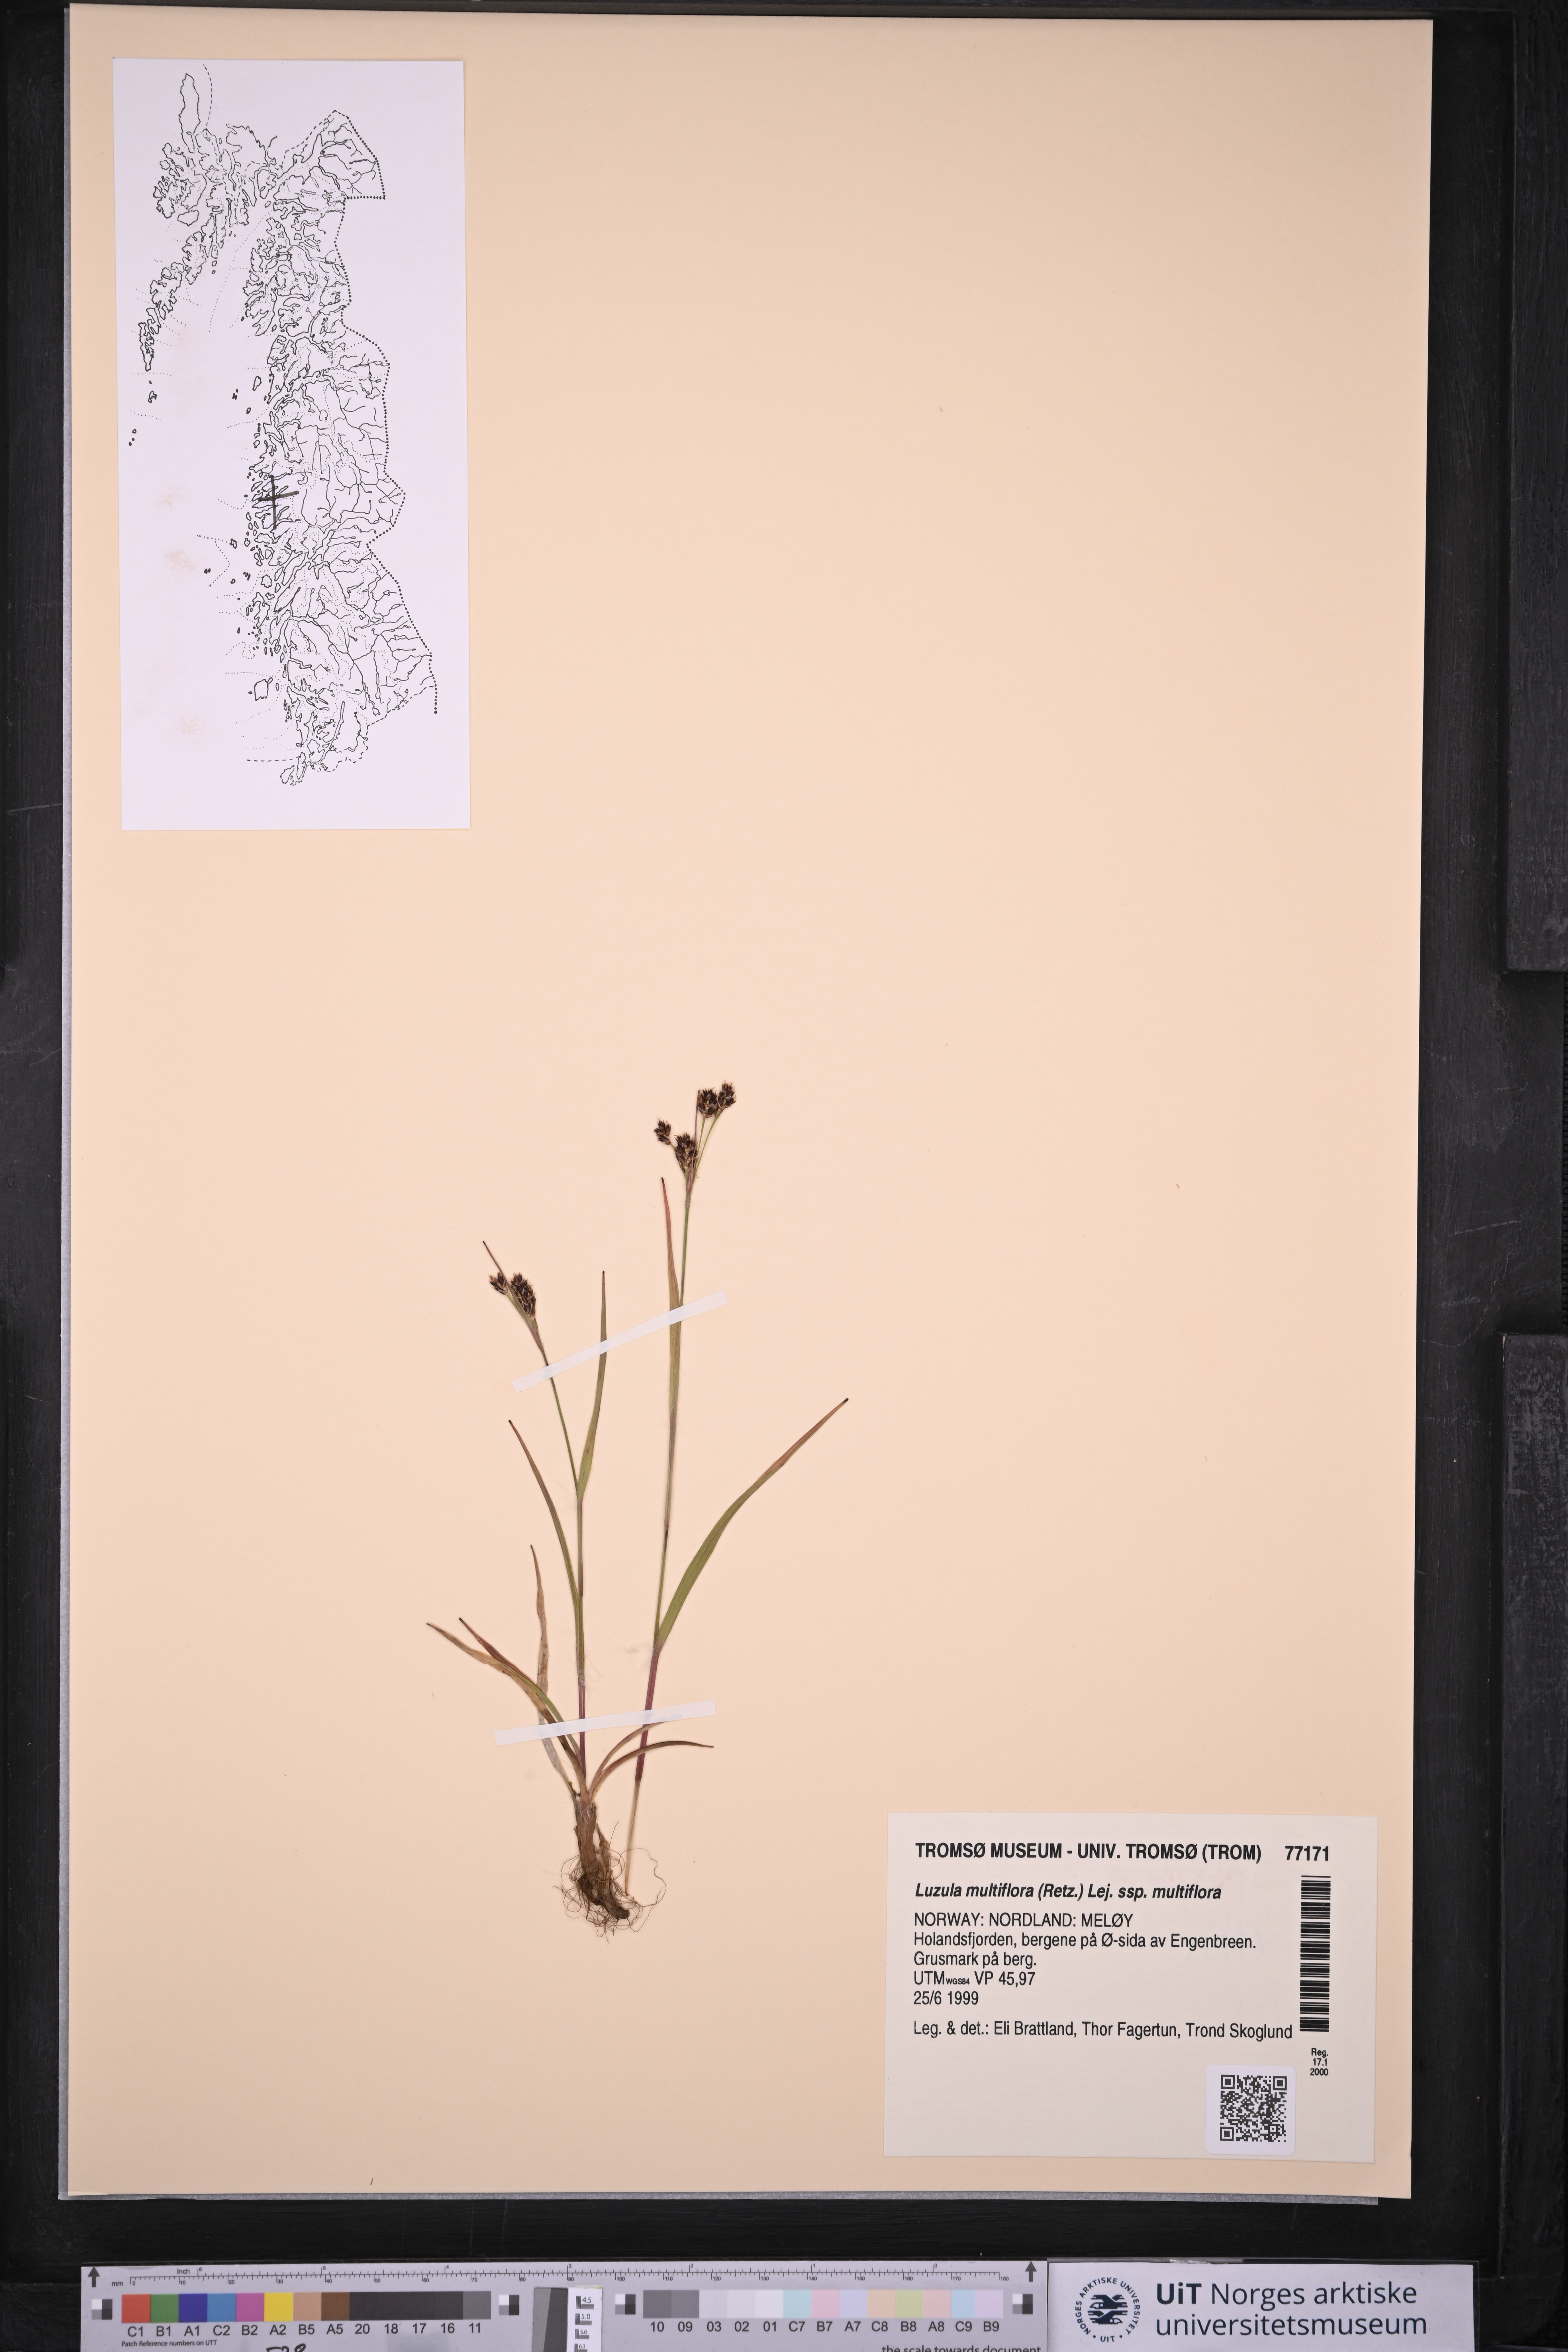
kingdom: Plantae
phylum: Tracheophyta
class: Liliopsida
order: Poales
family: Juncaceae
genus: Luzula
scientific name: Luzula multiflora
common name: Heath wood-rush
